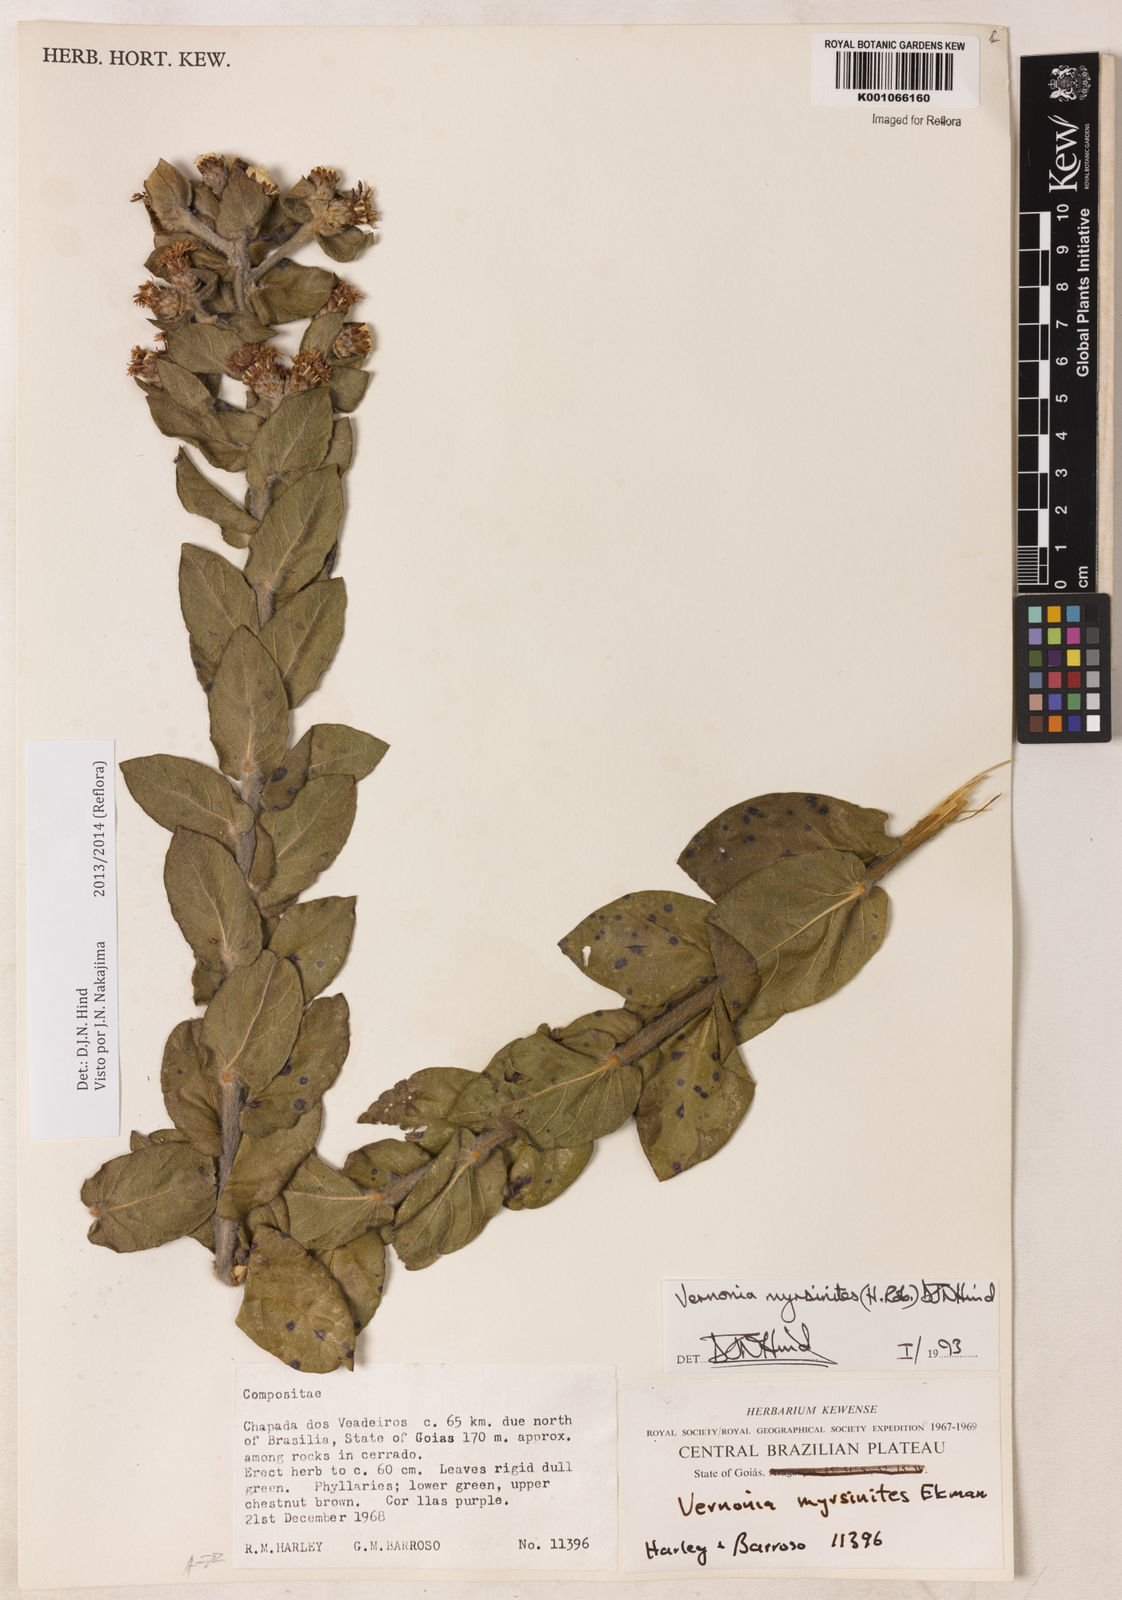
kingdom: Plantae
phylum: Tracheophyta
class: Magnoliopsida
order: Asterales
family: Asteraceae
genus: Lessingianthus
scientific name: Lessingianthus myrsinites
